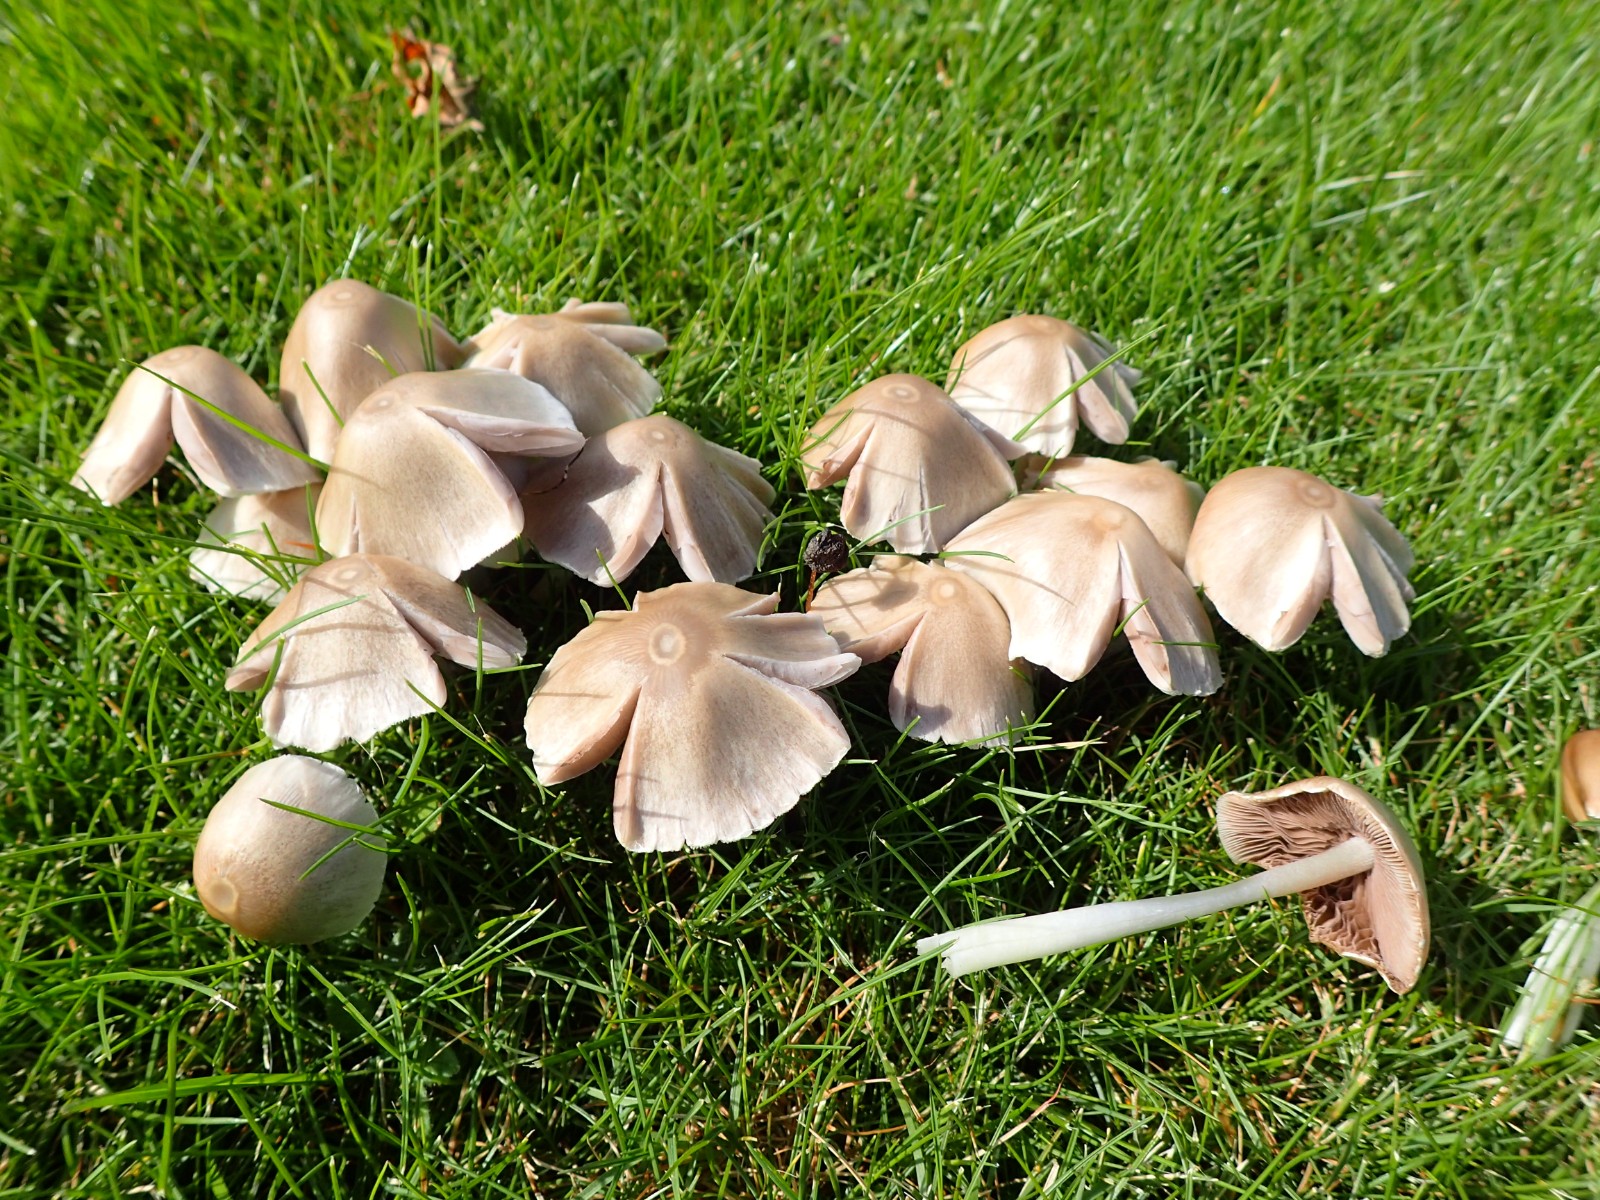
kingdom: Fungi
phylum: Basidiomycota
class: Agaricomycetes
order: Agaricales
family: Psathyrellaceae
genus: Candolleomyces
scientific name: Candolleomyces candolleanus
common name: Candolles mørkhat
